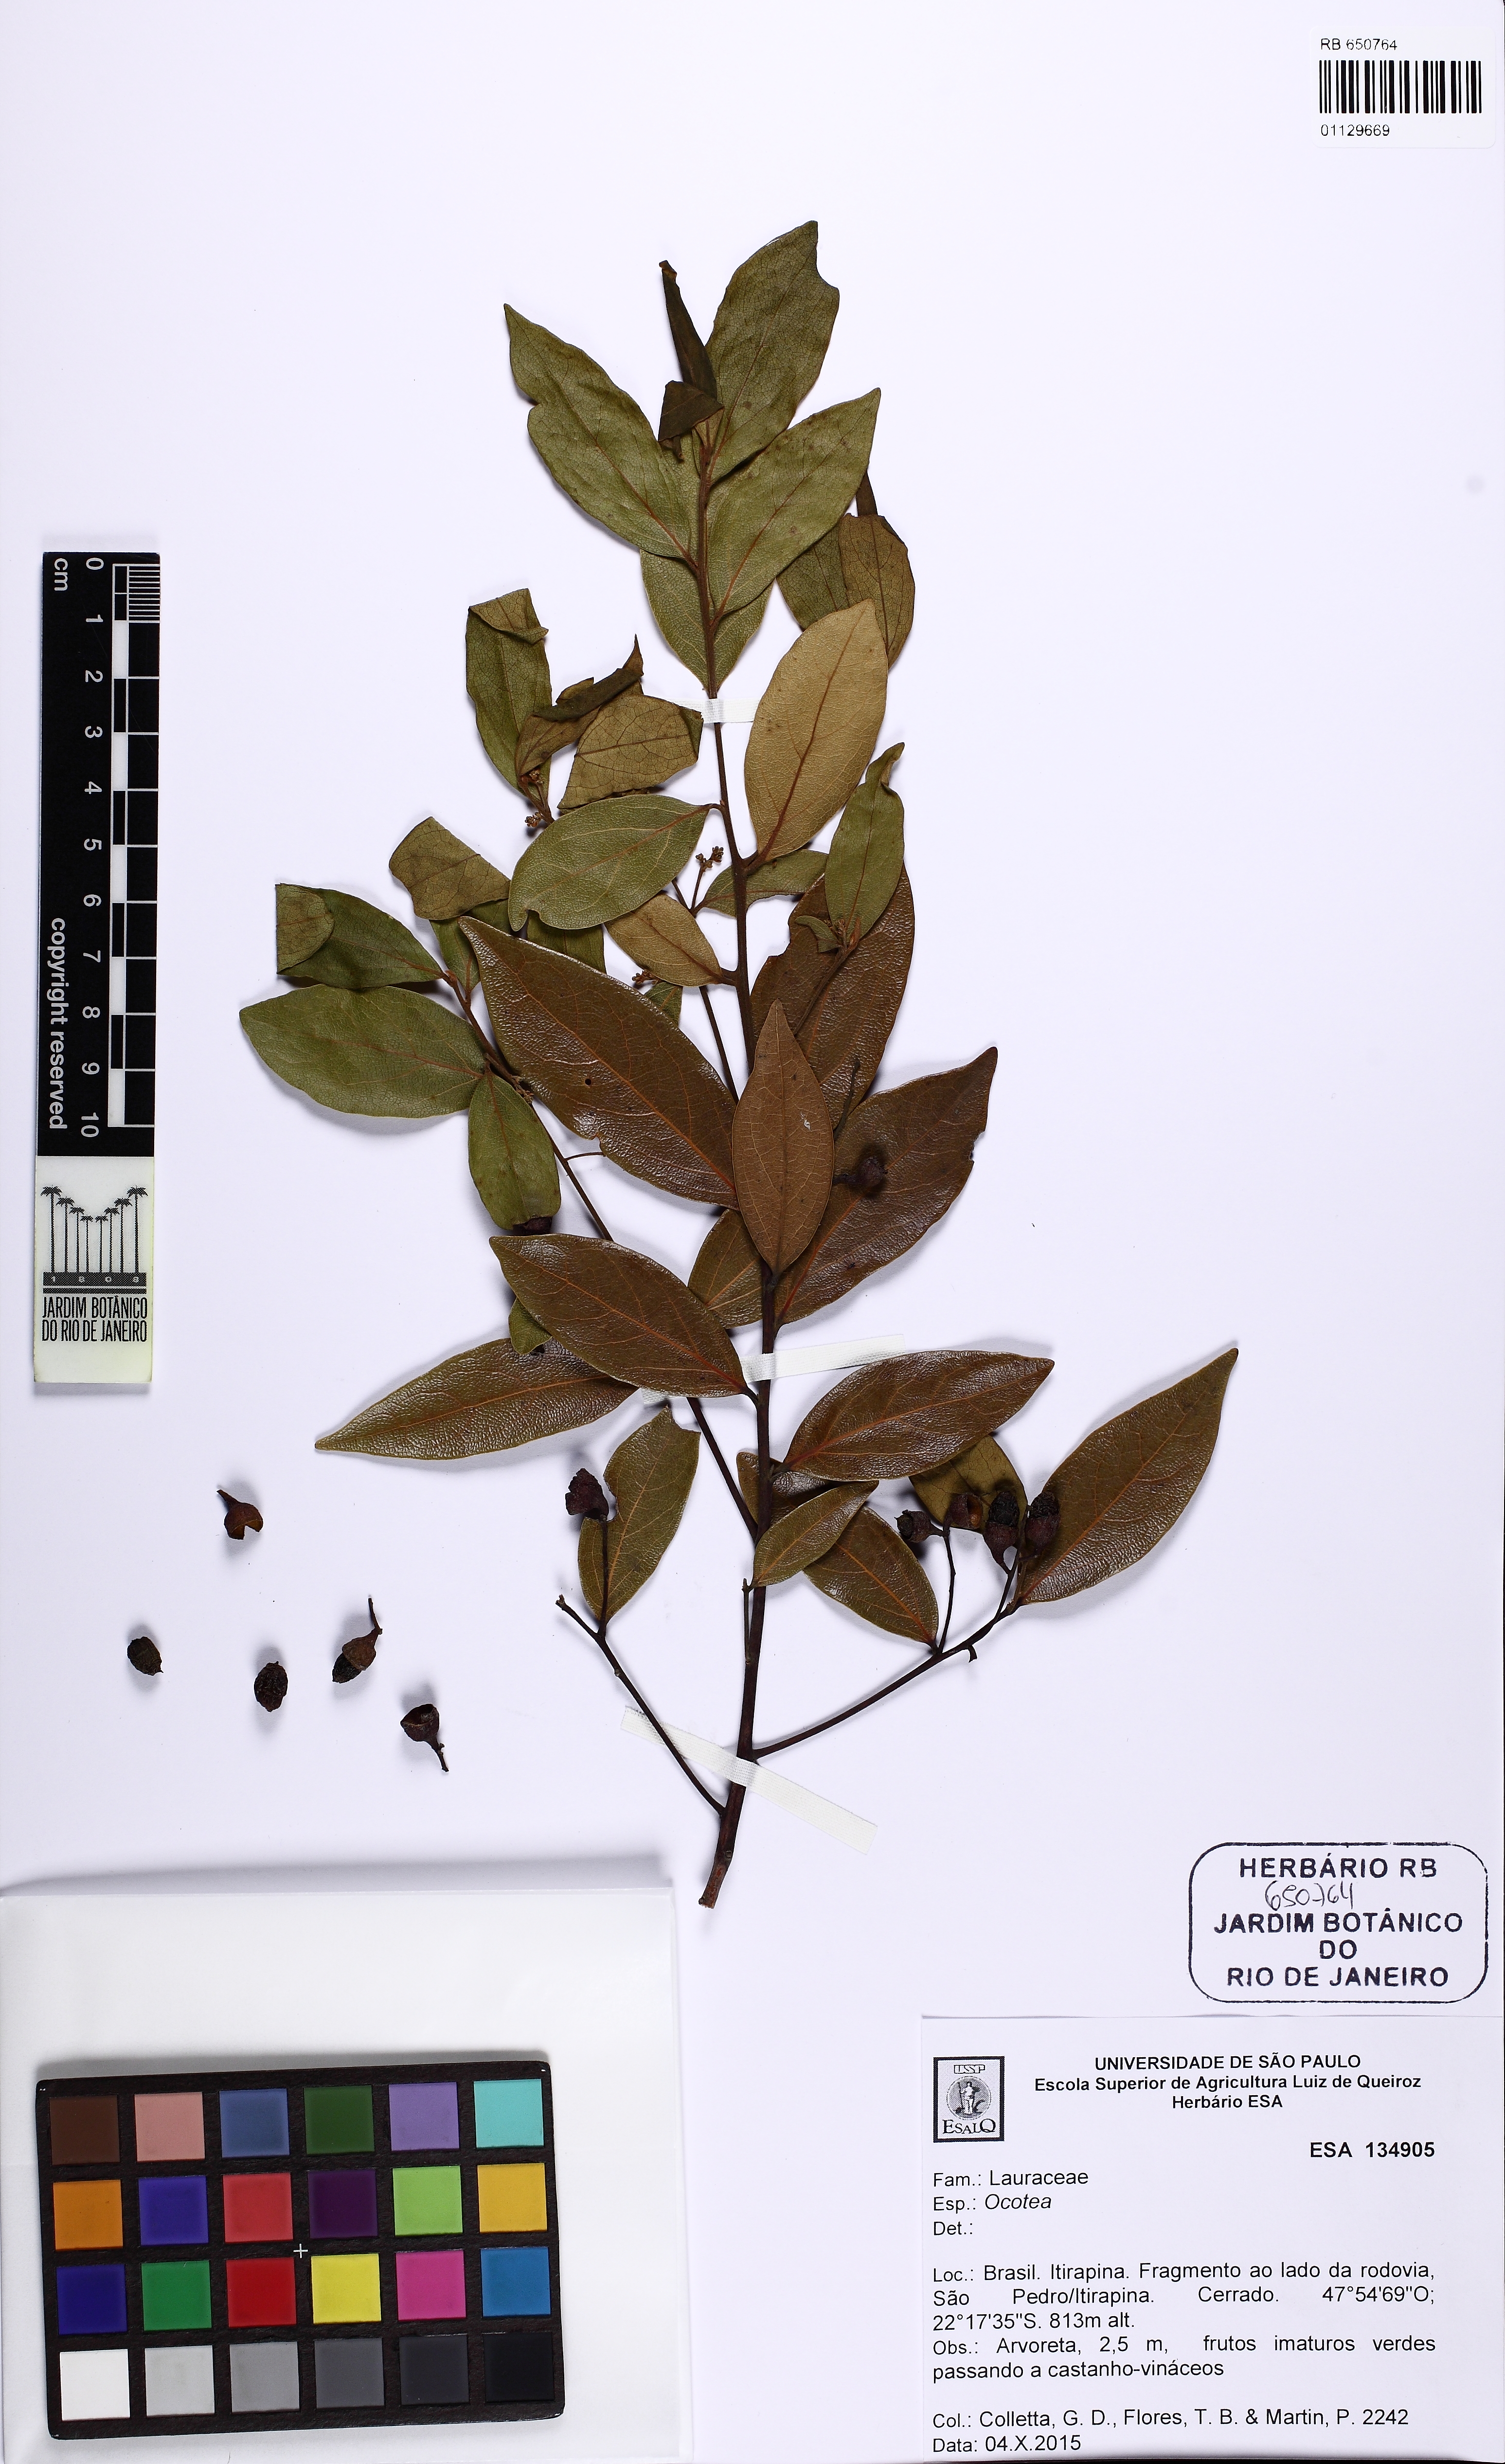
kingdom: Plantae
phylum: Tracheophyta
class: Magnoliopsida
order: Laurales
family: Lauraceae
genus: Ocotea
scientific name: Ocotea
